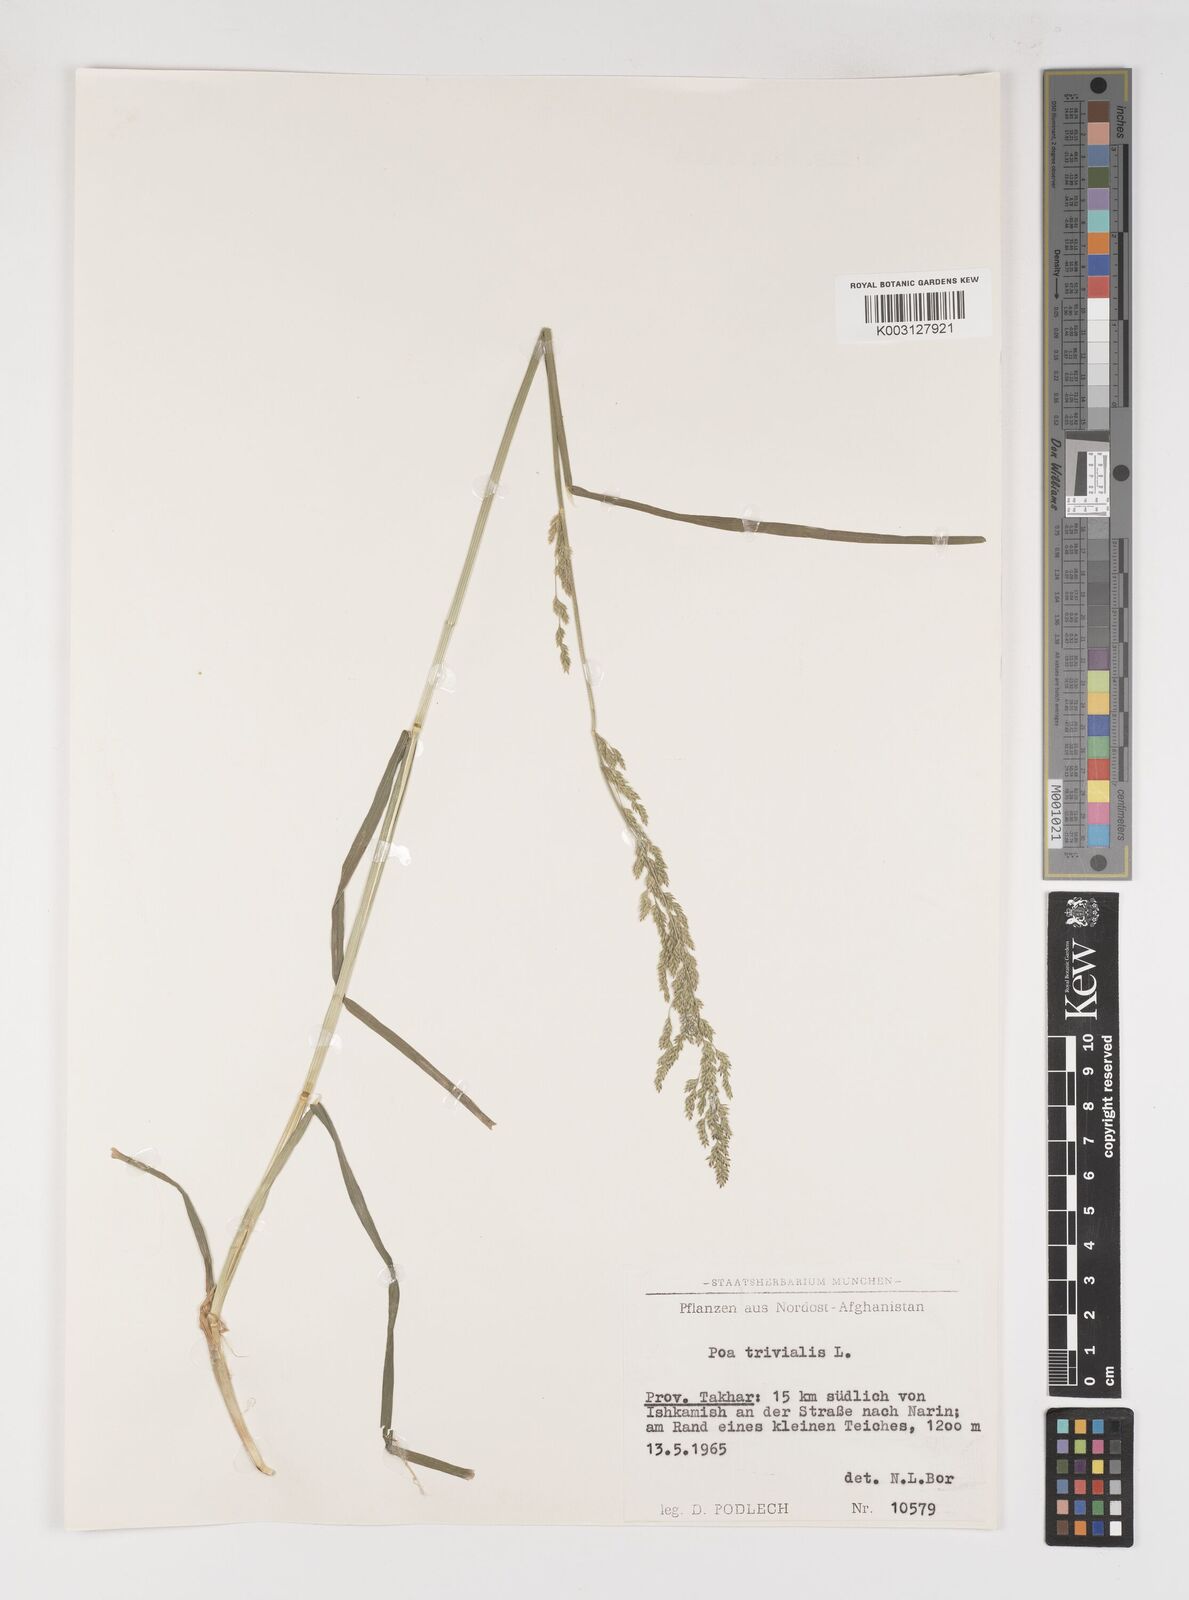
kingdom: Plantae
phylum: Tracheophyta
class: Liliopsida
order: Poales
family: Poaceae
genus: Poa
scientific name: Poa trivialis
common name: Rough bluegrass
